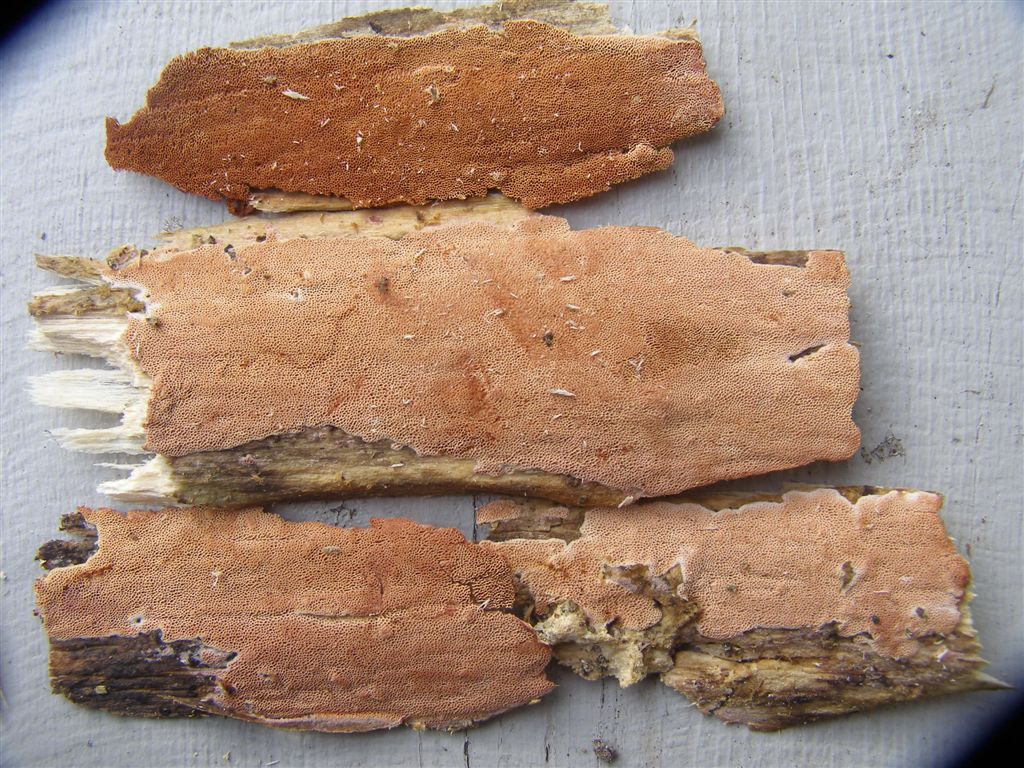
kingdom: Fungi
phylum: Basidiomycota
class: Agaricomycetes
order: Polyporales
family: Irpicaceae
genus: Ceriporia
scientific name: Ceriporia purpurea
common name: purpur-voksporesvamp
